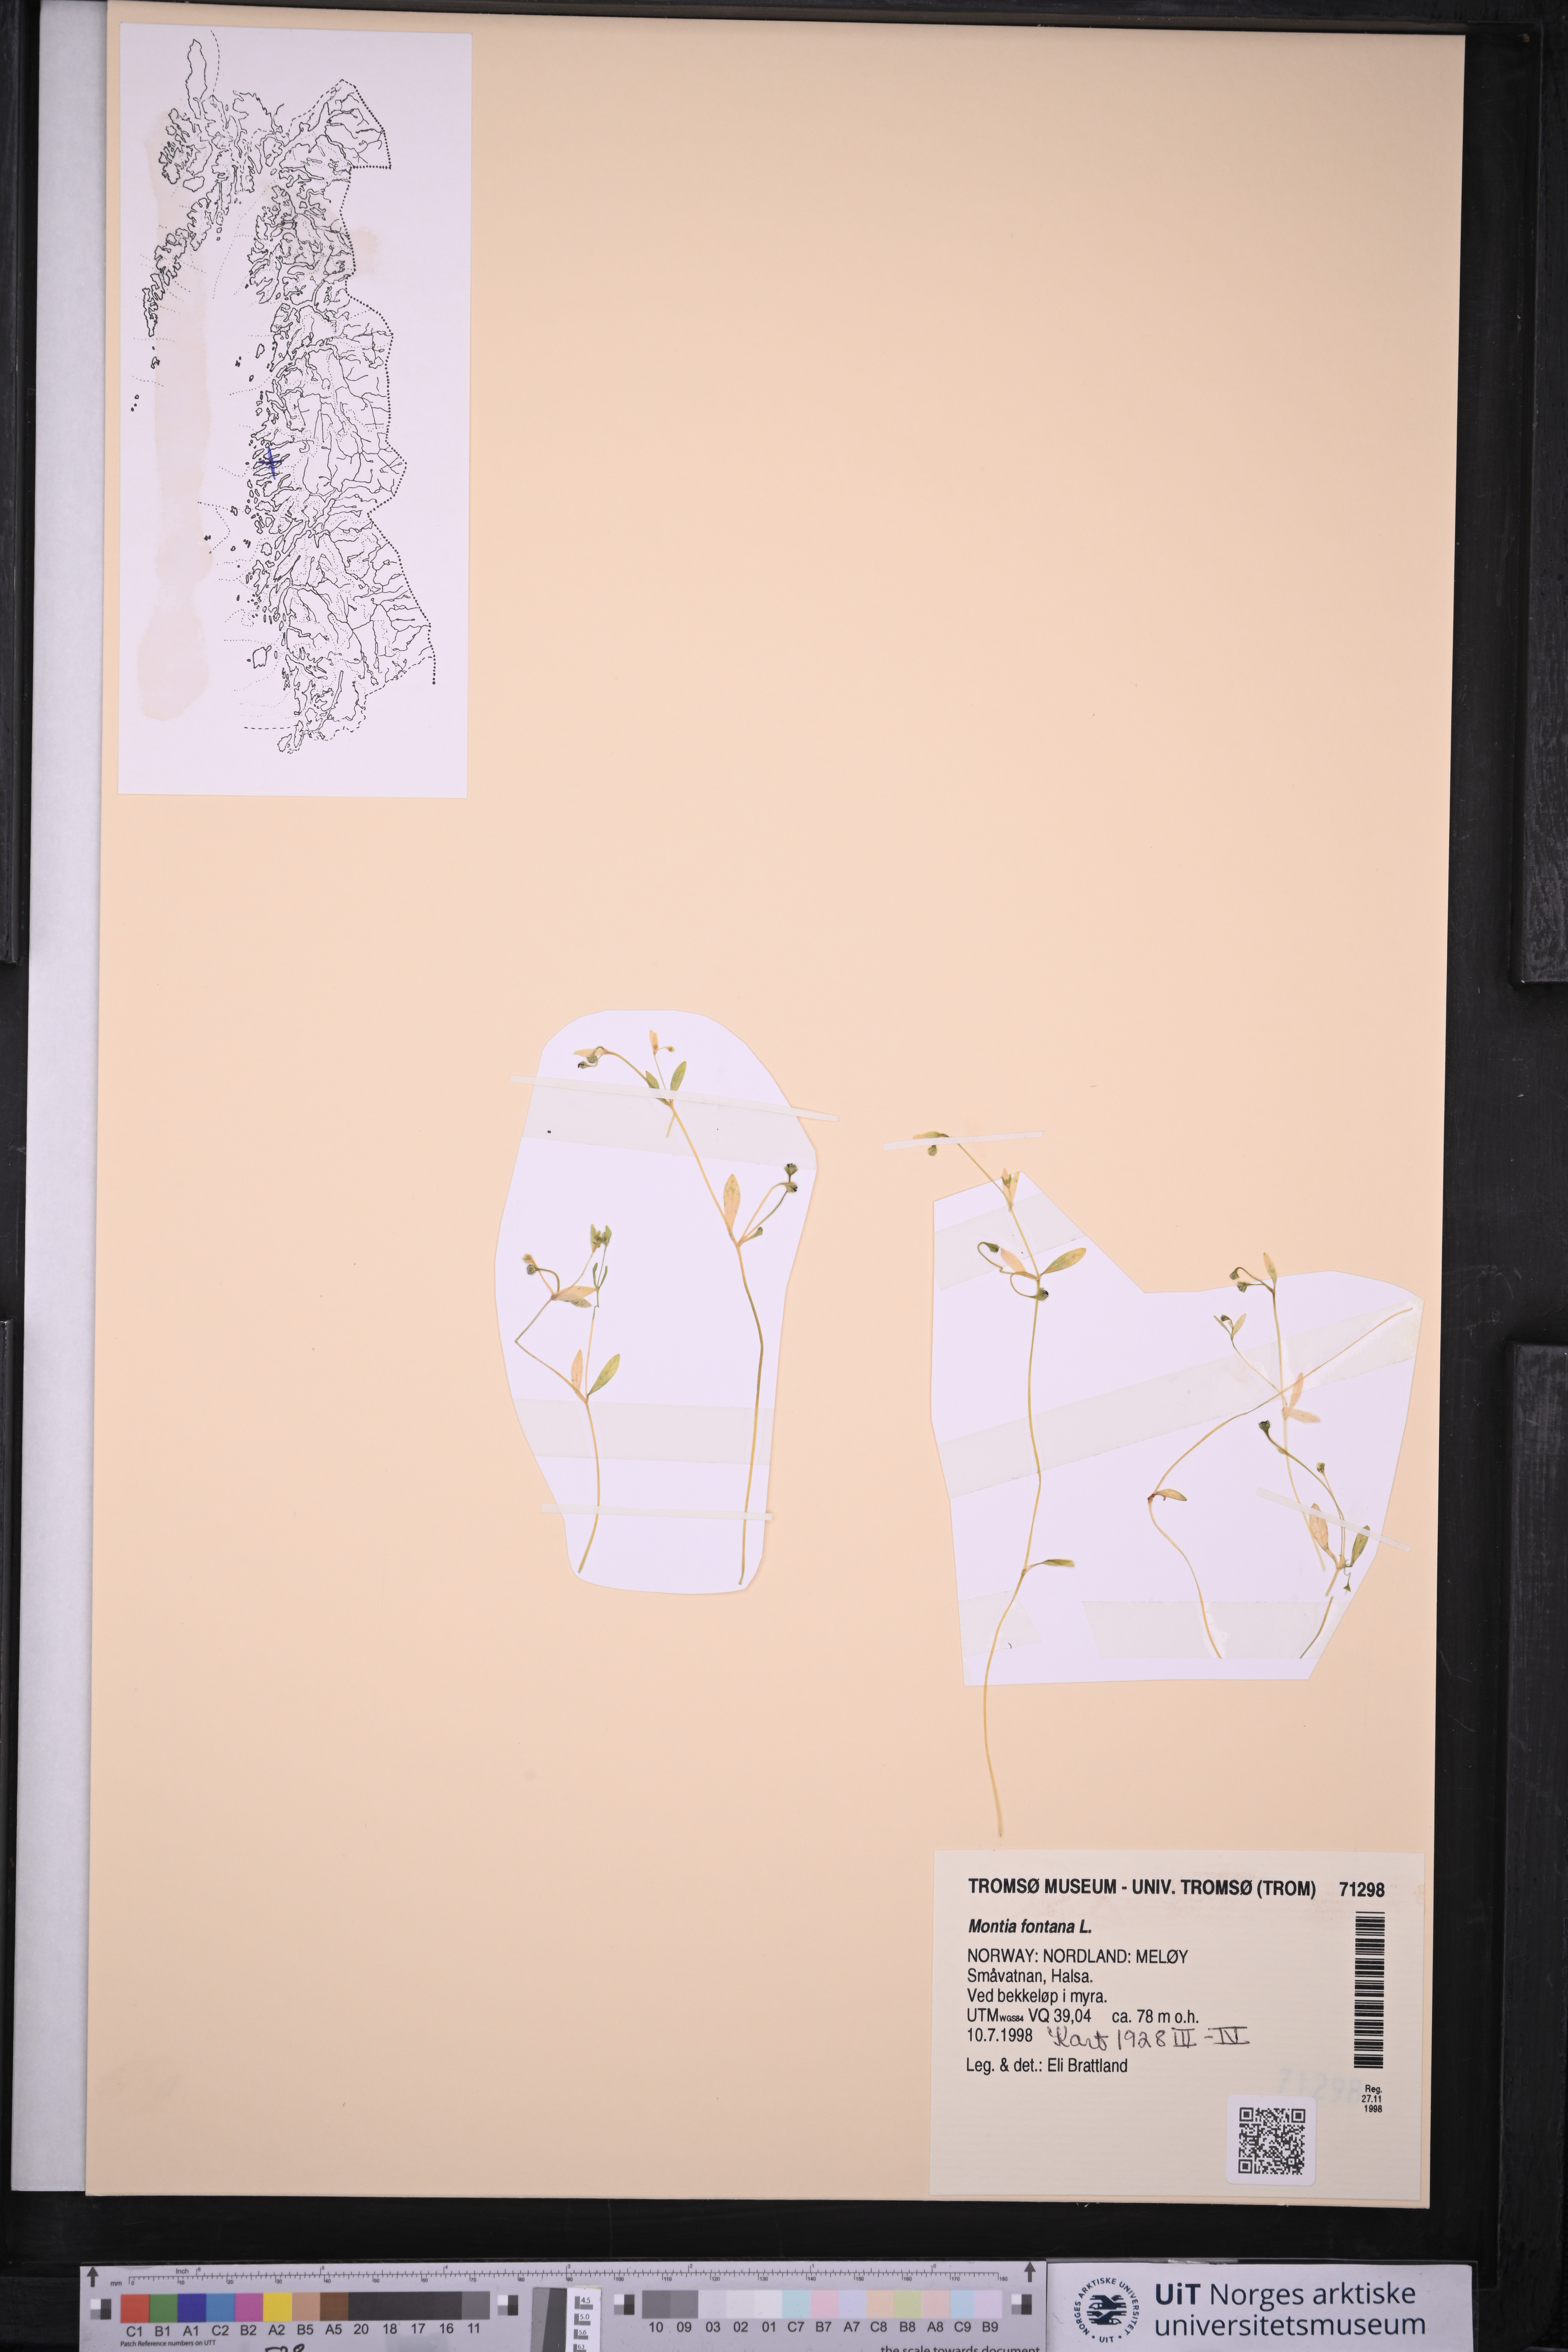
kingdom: Plantae
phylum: Tracheophyta
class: Magnoliopsida
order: Caryophyllales
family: Montiaceae
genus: Montia
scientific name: Montia fontana
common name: Blinks
